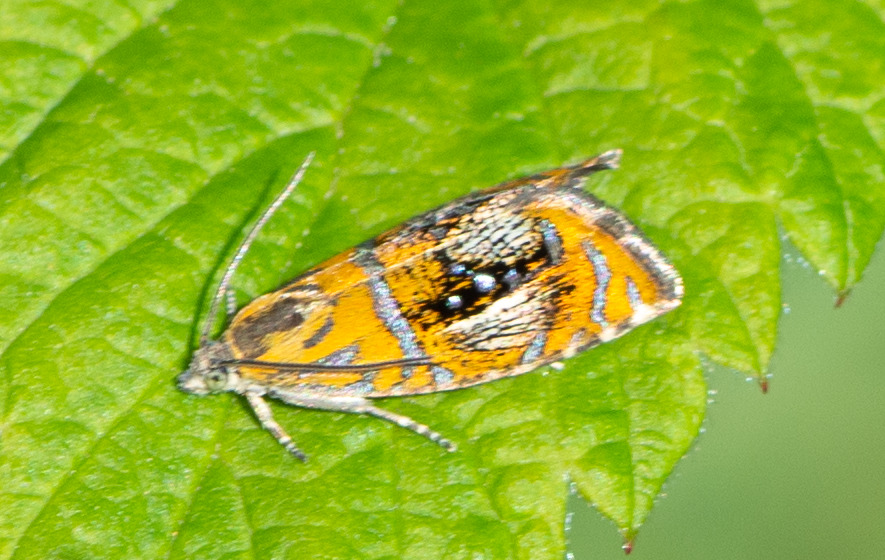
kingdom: Animalia
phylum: Arthropoda
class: Insecta
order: Lepidoptera
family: Tortricidae
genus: Olethreutes
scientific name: Olethreutes arcuella
